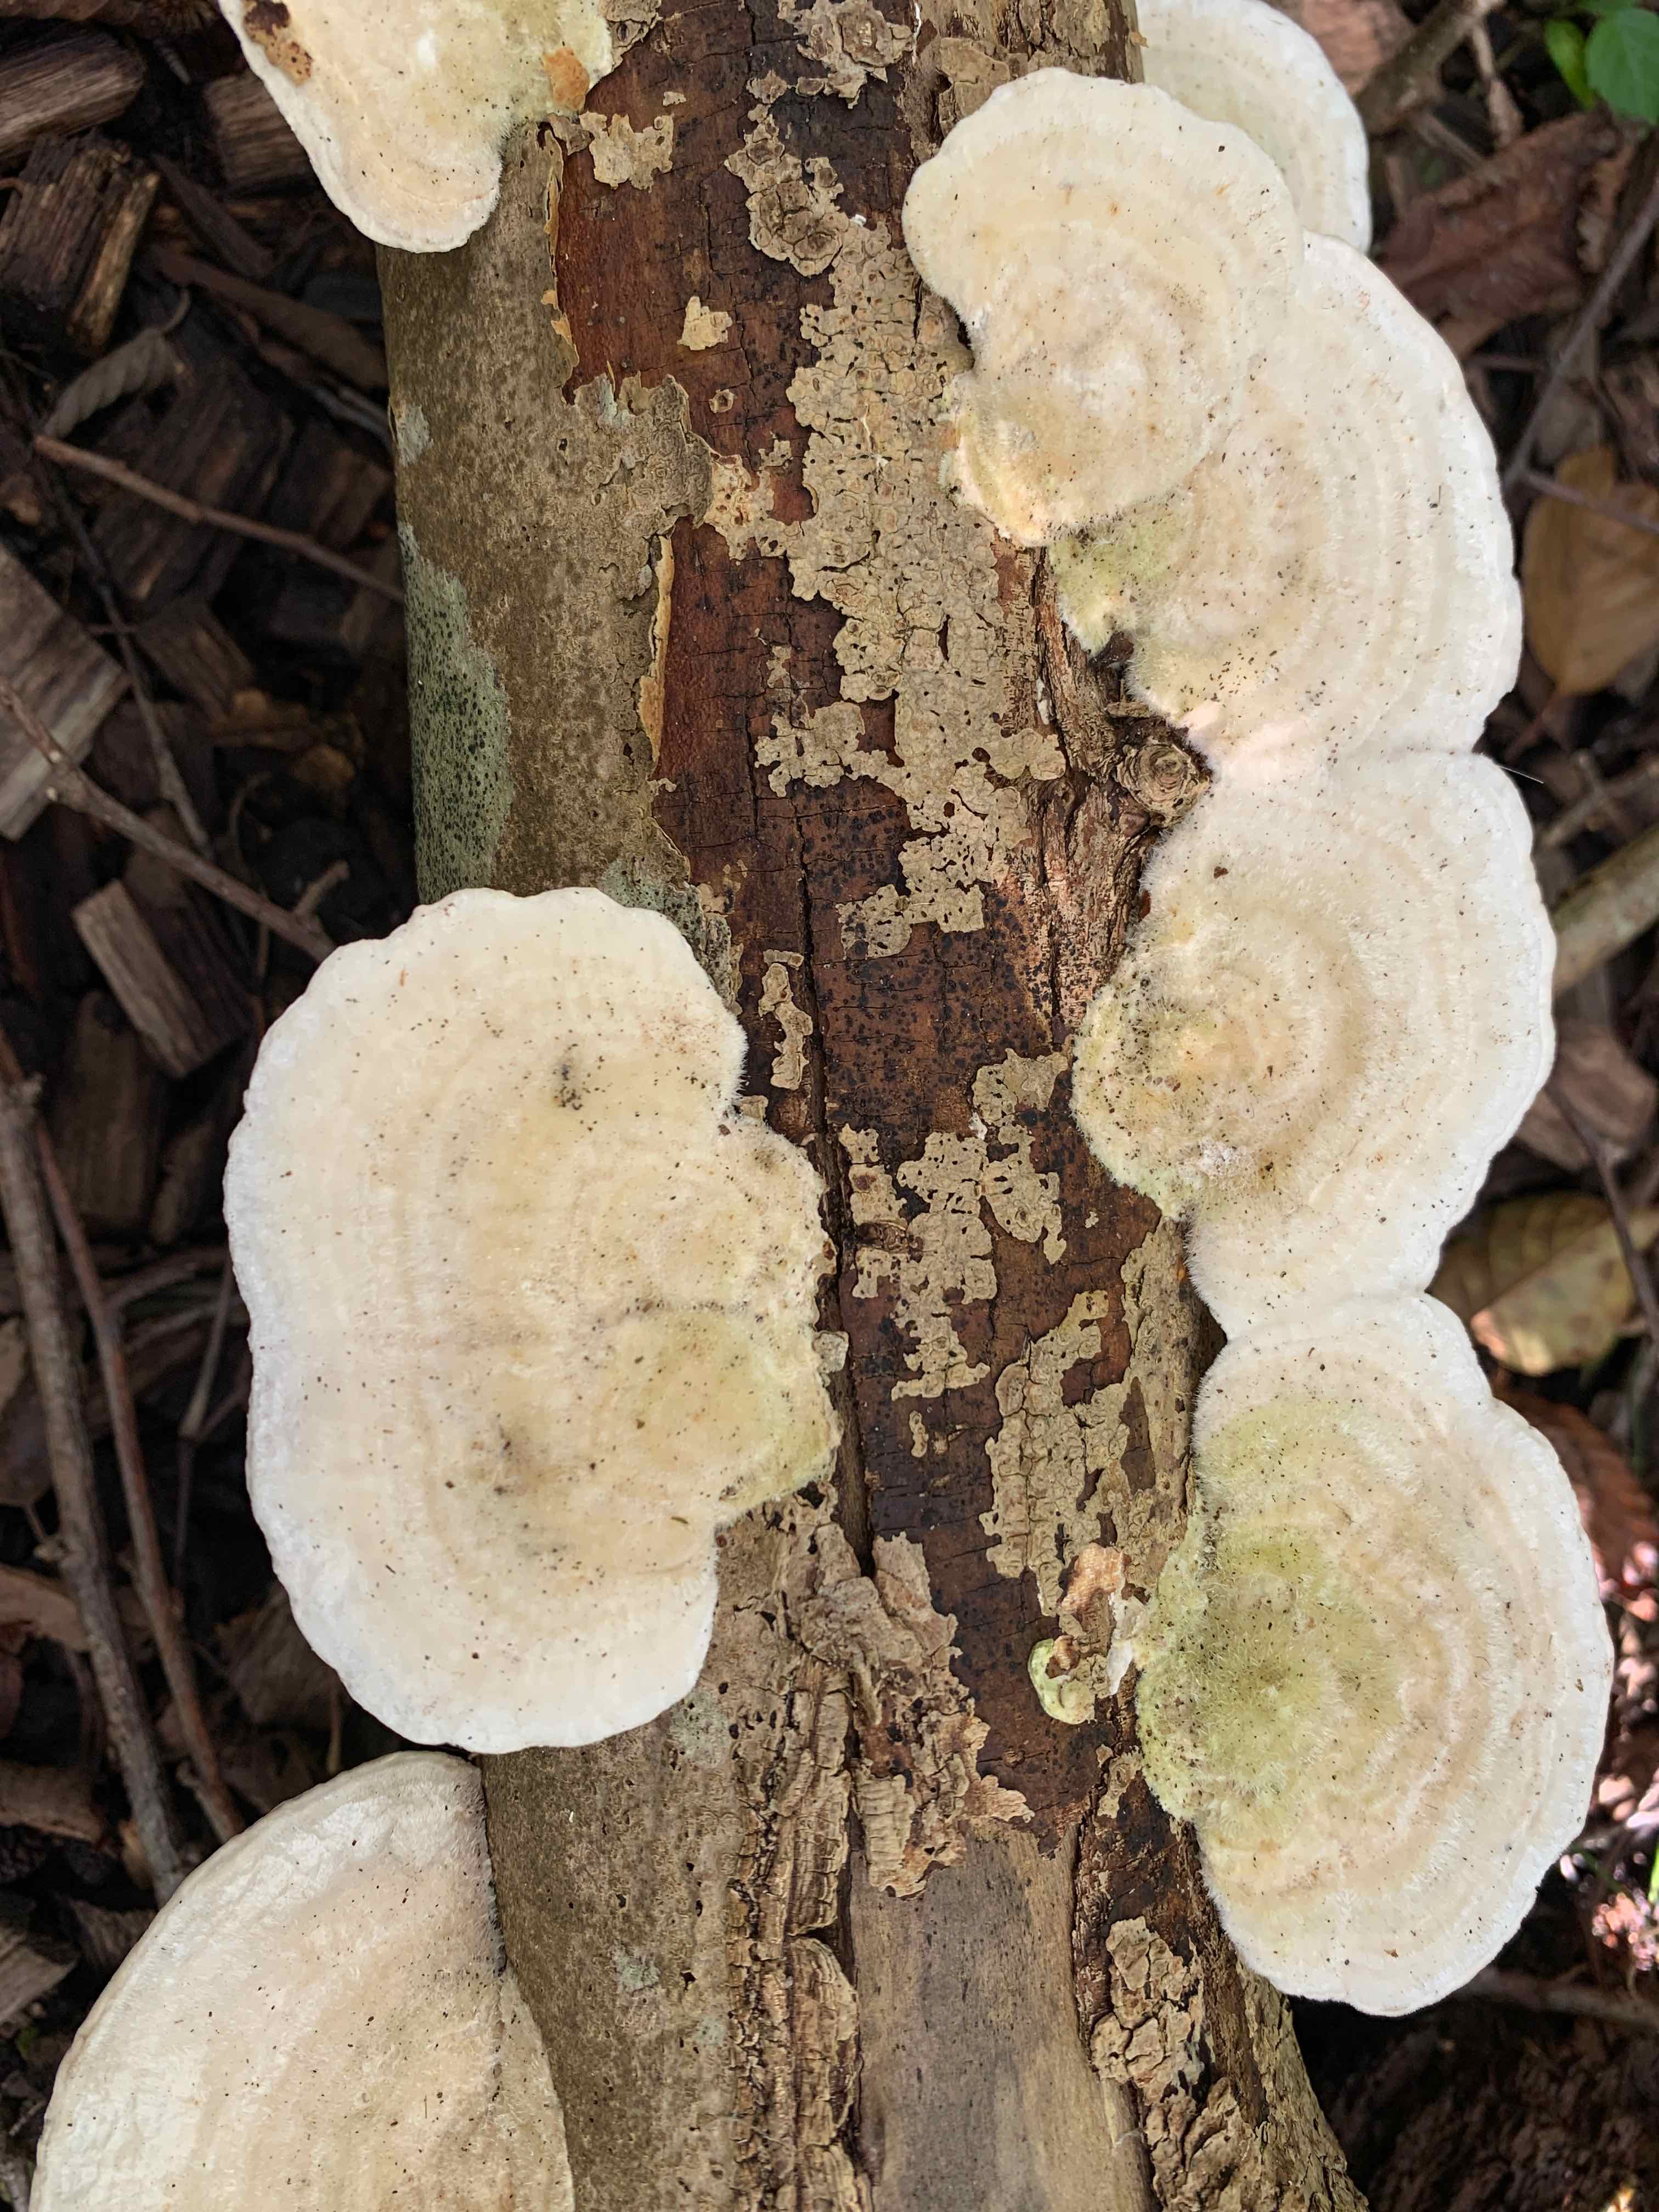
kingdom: Fungi
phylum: Basidiomycota
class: Agaricomycetes
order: Polyporales
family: Polyporaceae
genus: Trametes
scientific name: Trametes hirsuta
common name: håret læderporesvamp
